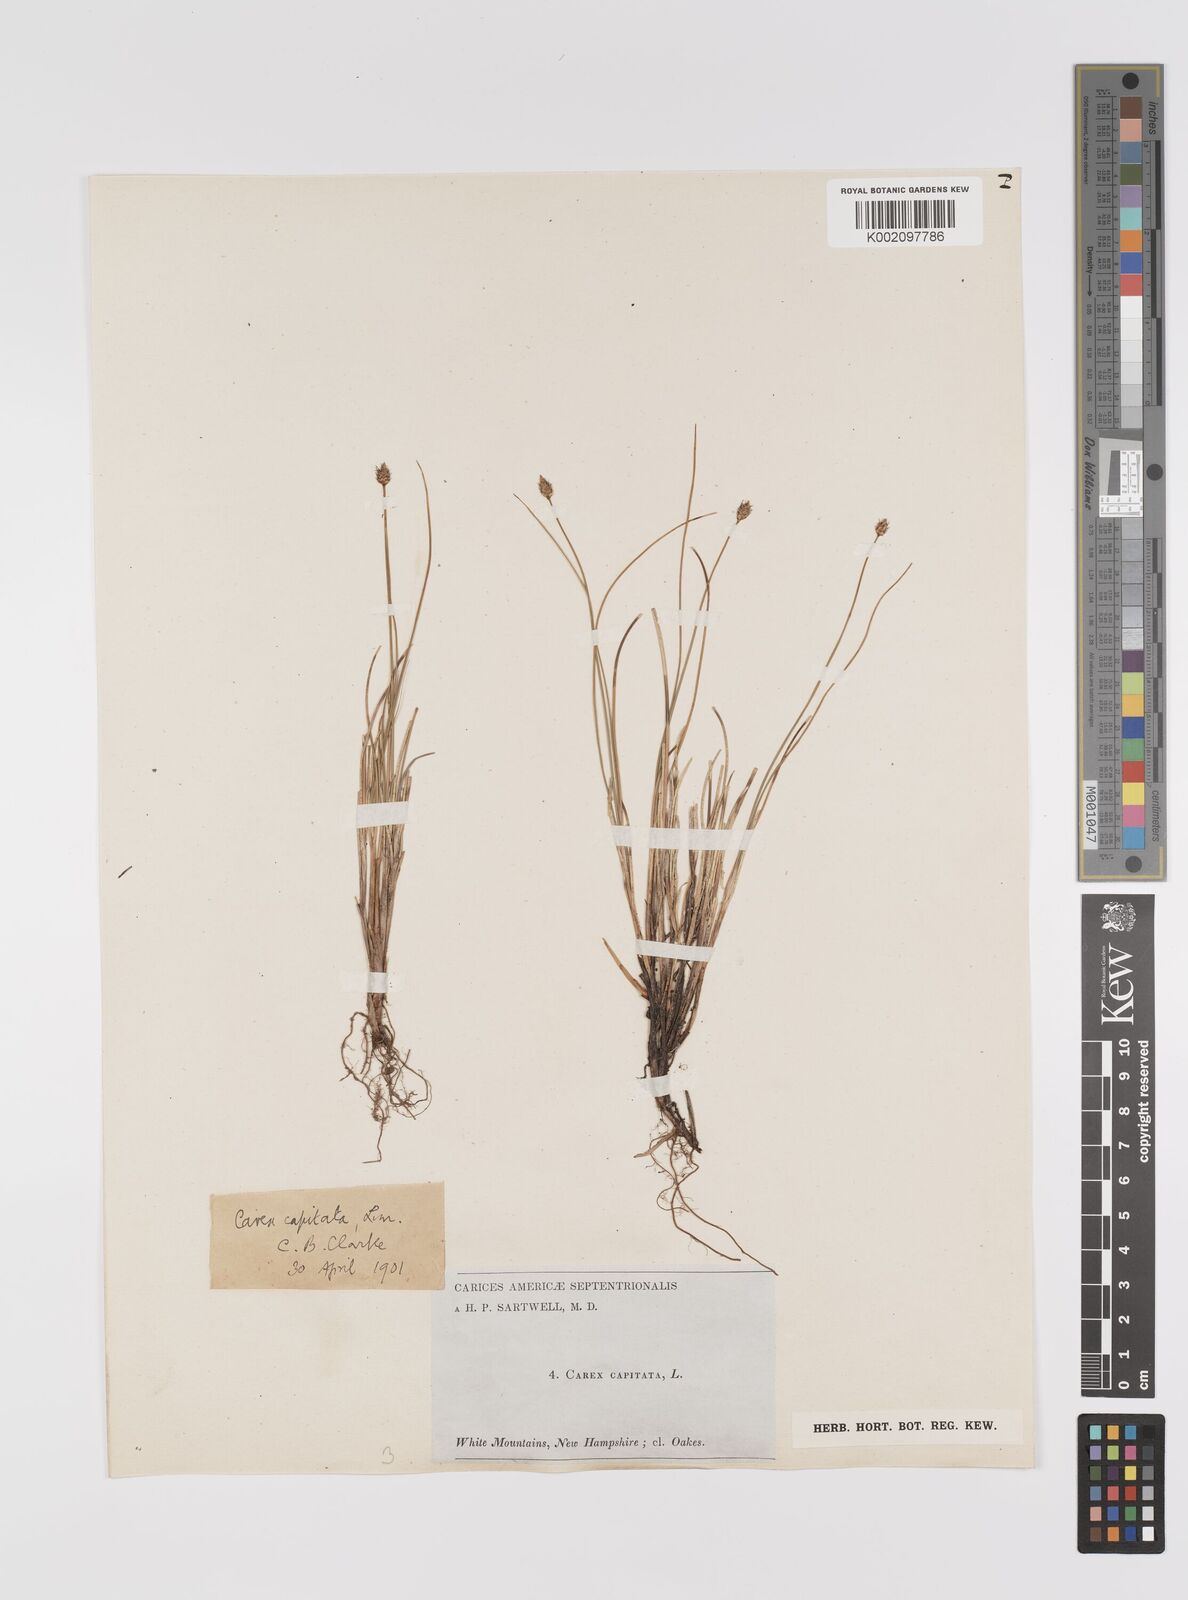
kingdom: Plantae
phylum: Tracheophyta
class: Liliopsida
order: Poales
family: Cyperaceae
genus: Carex
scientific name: Carex capitata
